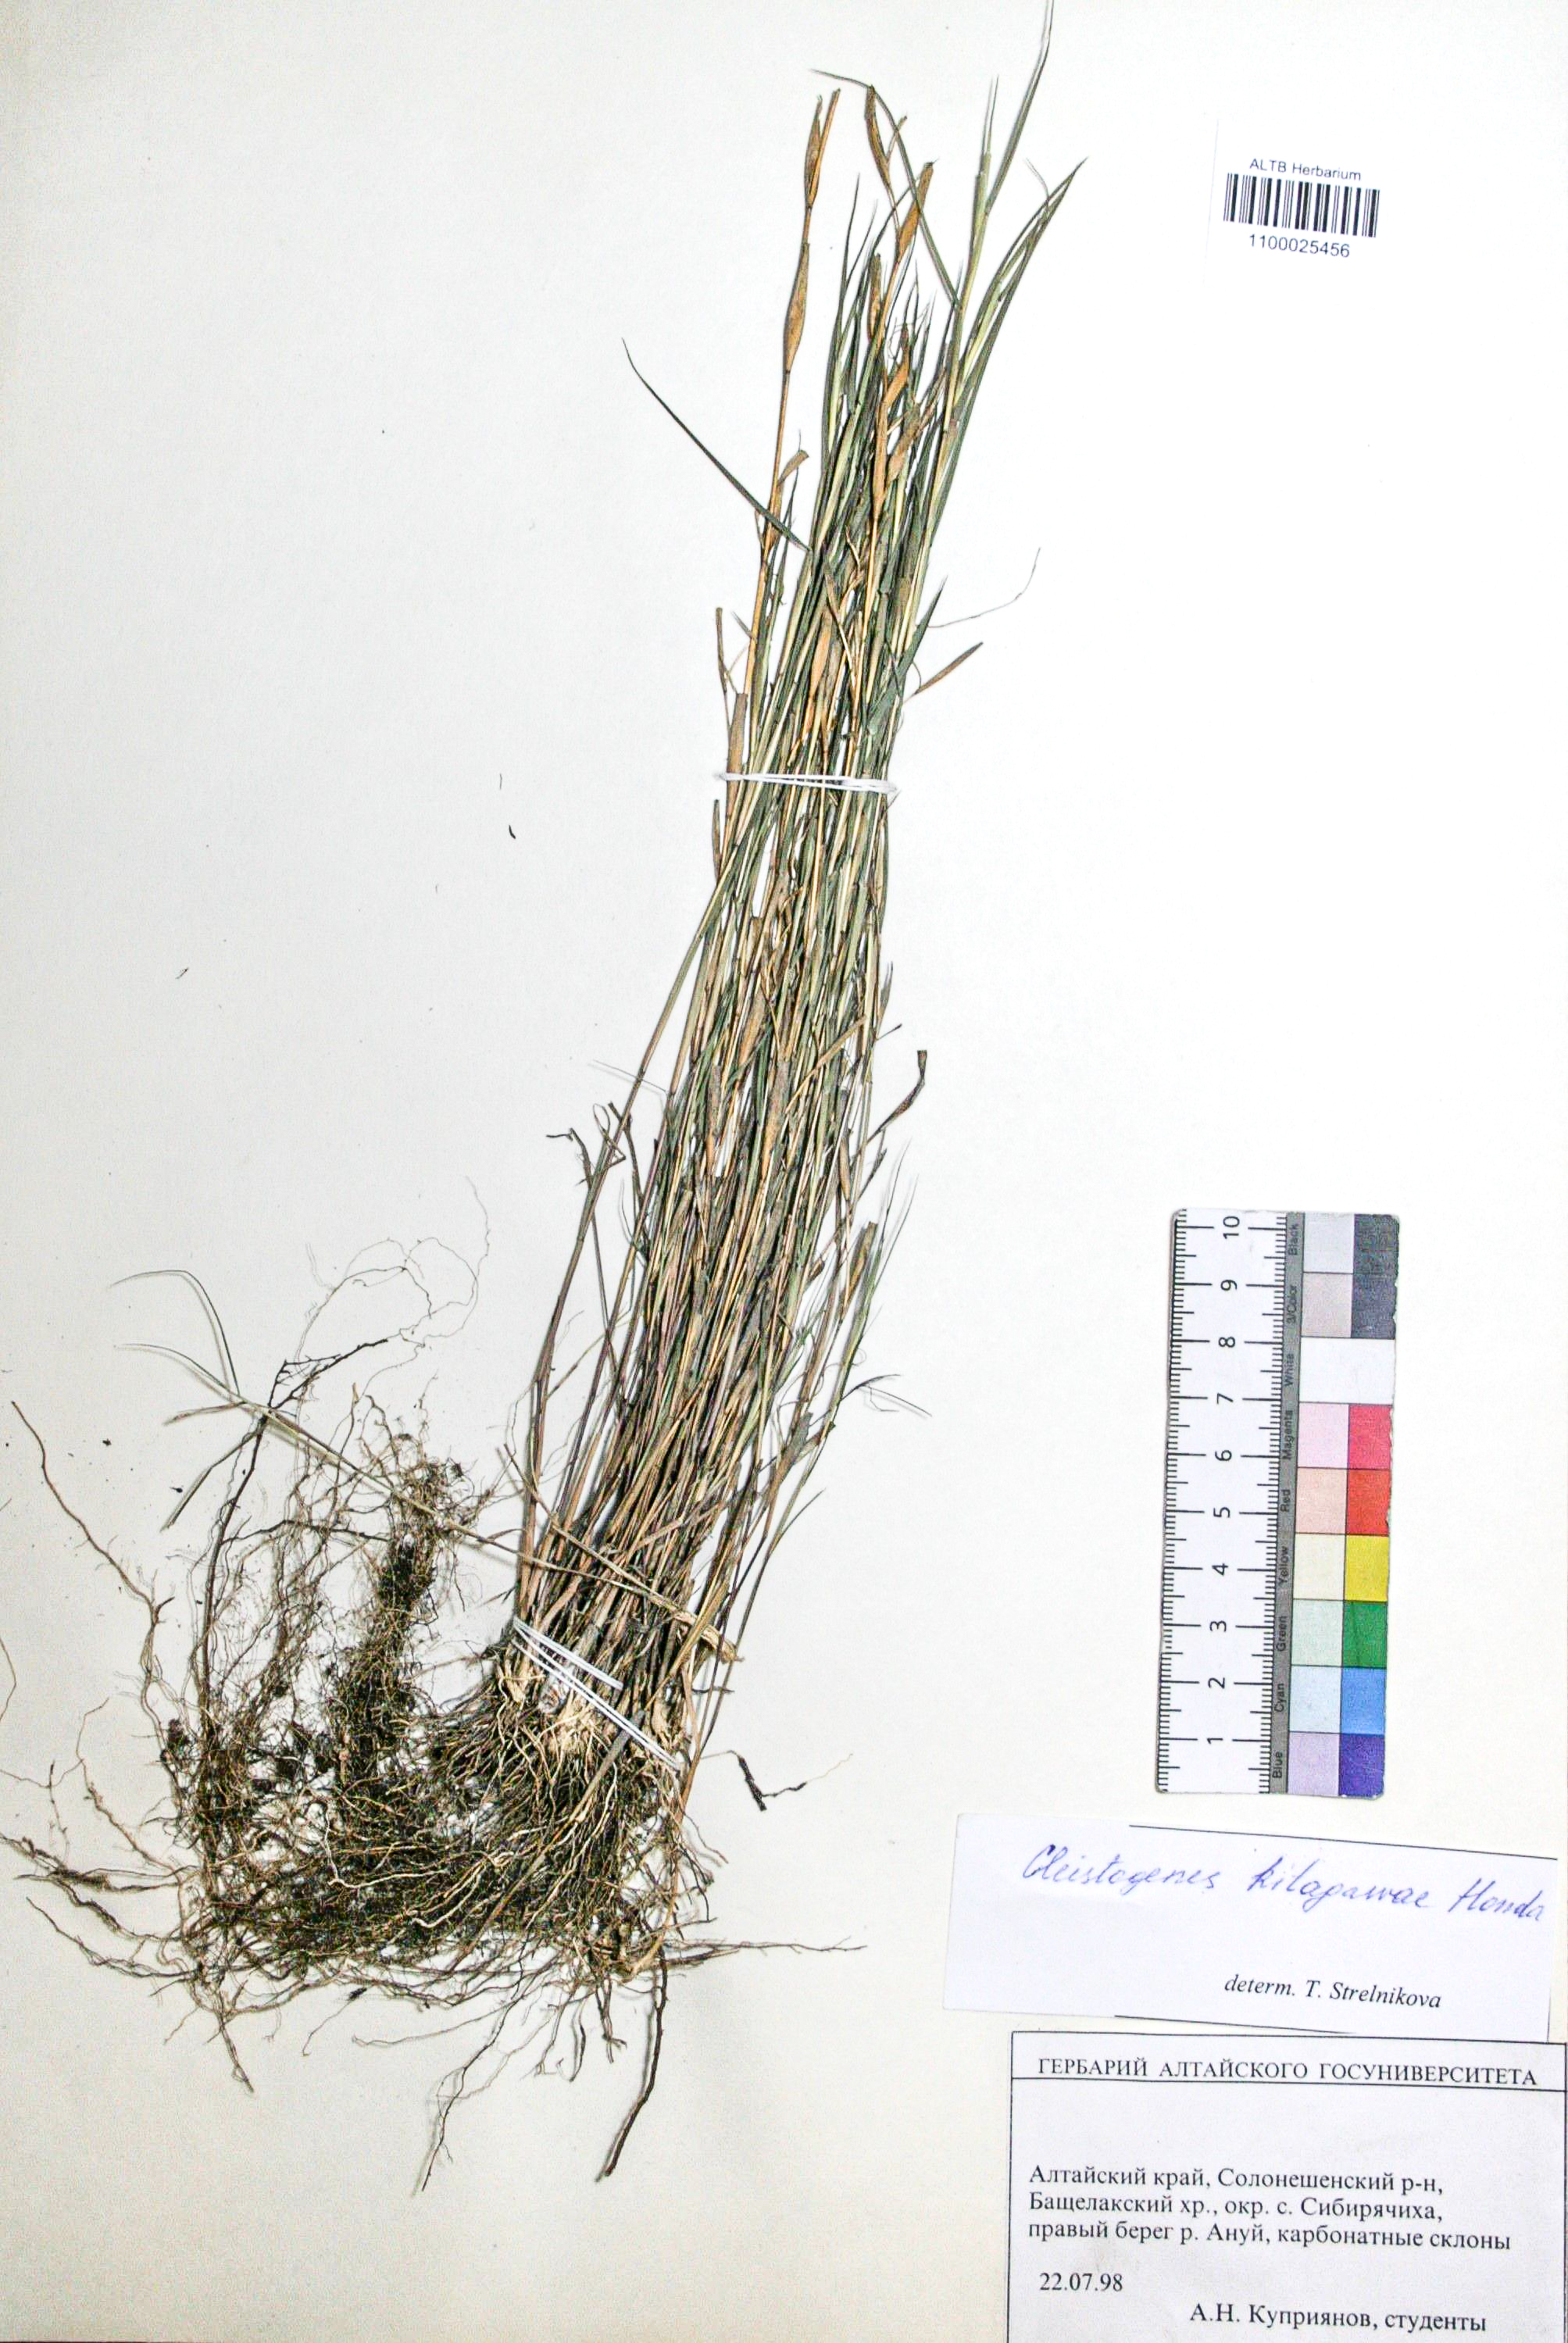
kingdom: Plantae
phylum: Tracheophyta
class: Liliopsida
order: Poales
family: Poaceae
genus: Cleistogenes
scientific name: Cleistogenes kitagawae
